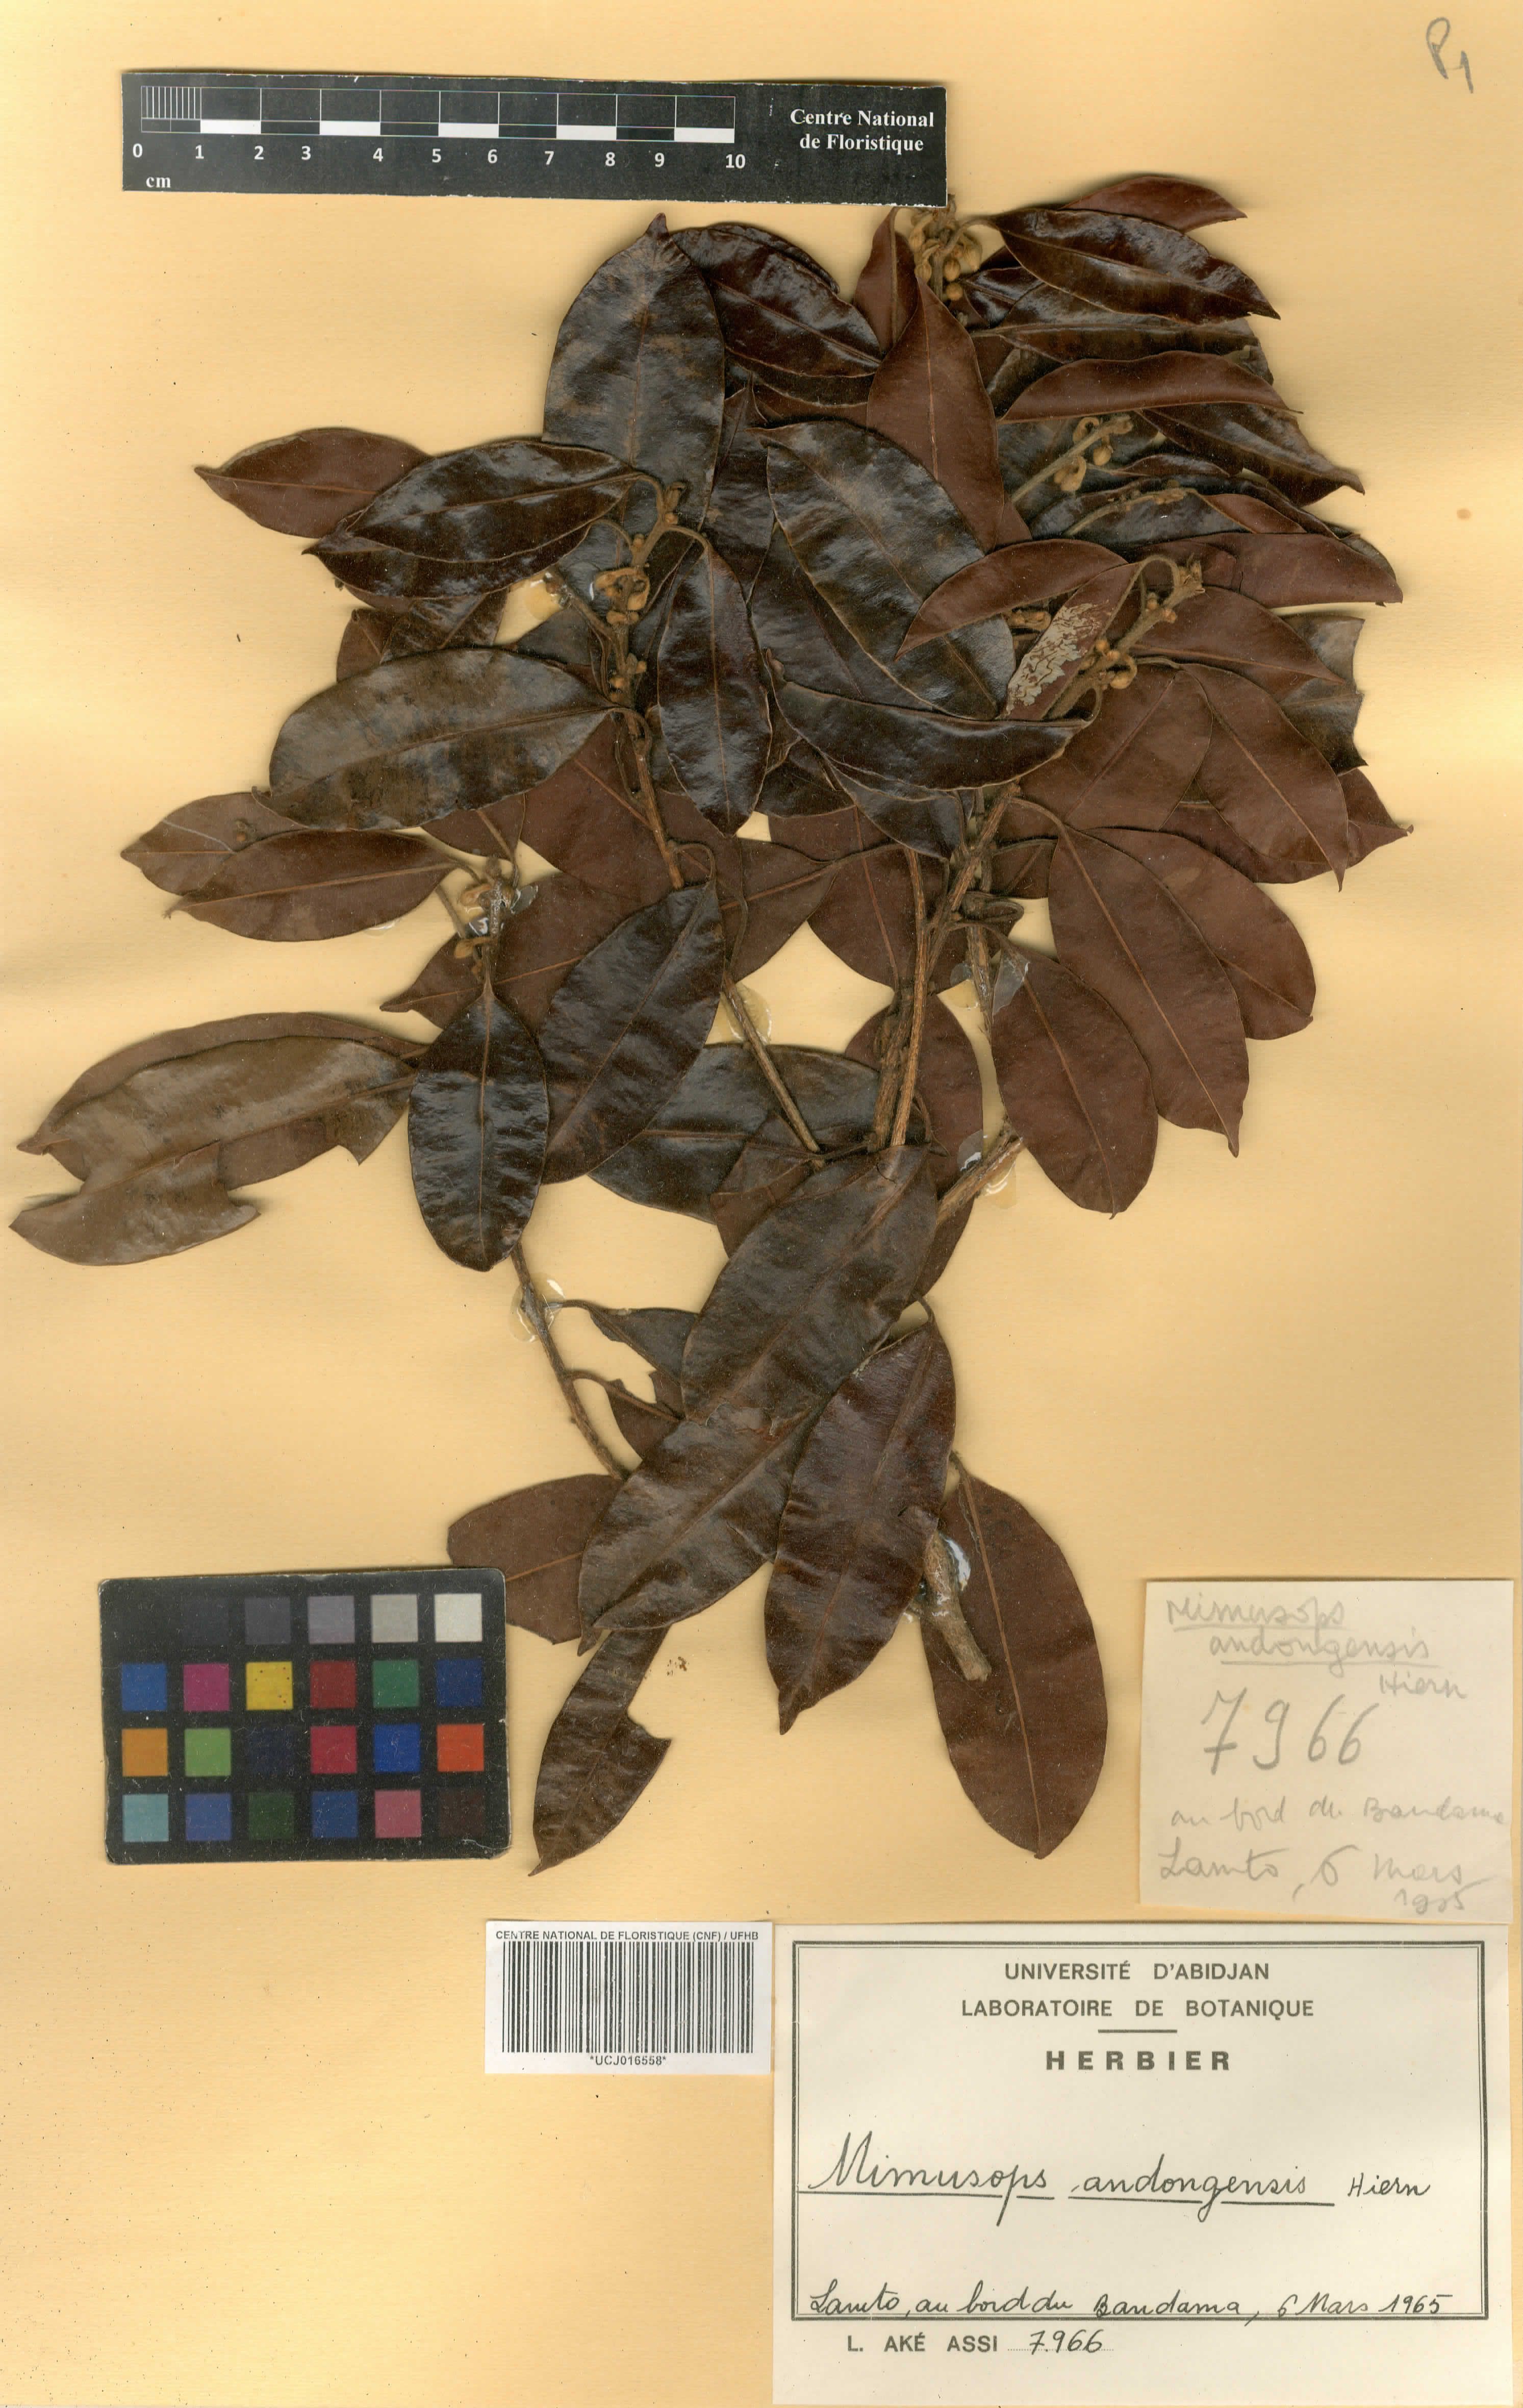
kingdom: Plantae
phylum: Tracheophyta
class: Magnoliopsida
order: Ericales
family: Sapotaceae
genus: Mimusops
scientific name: Mimusops andongensis
